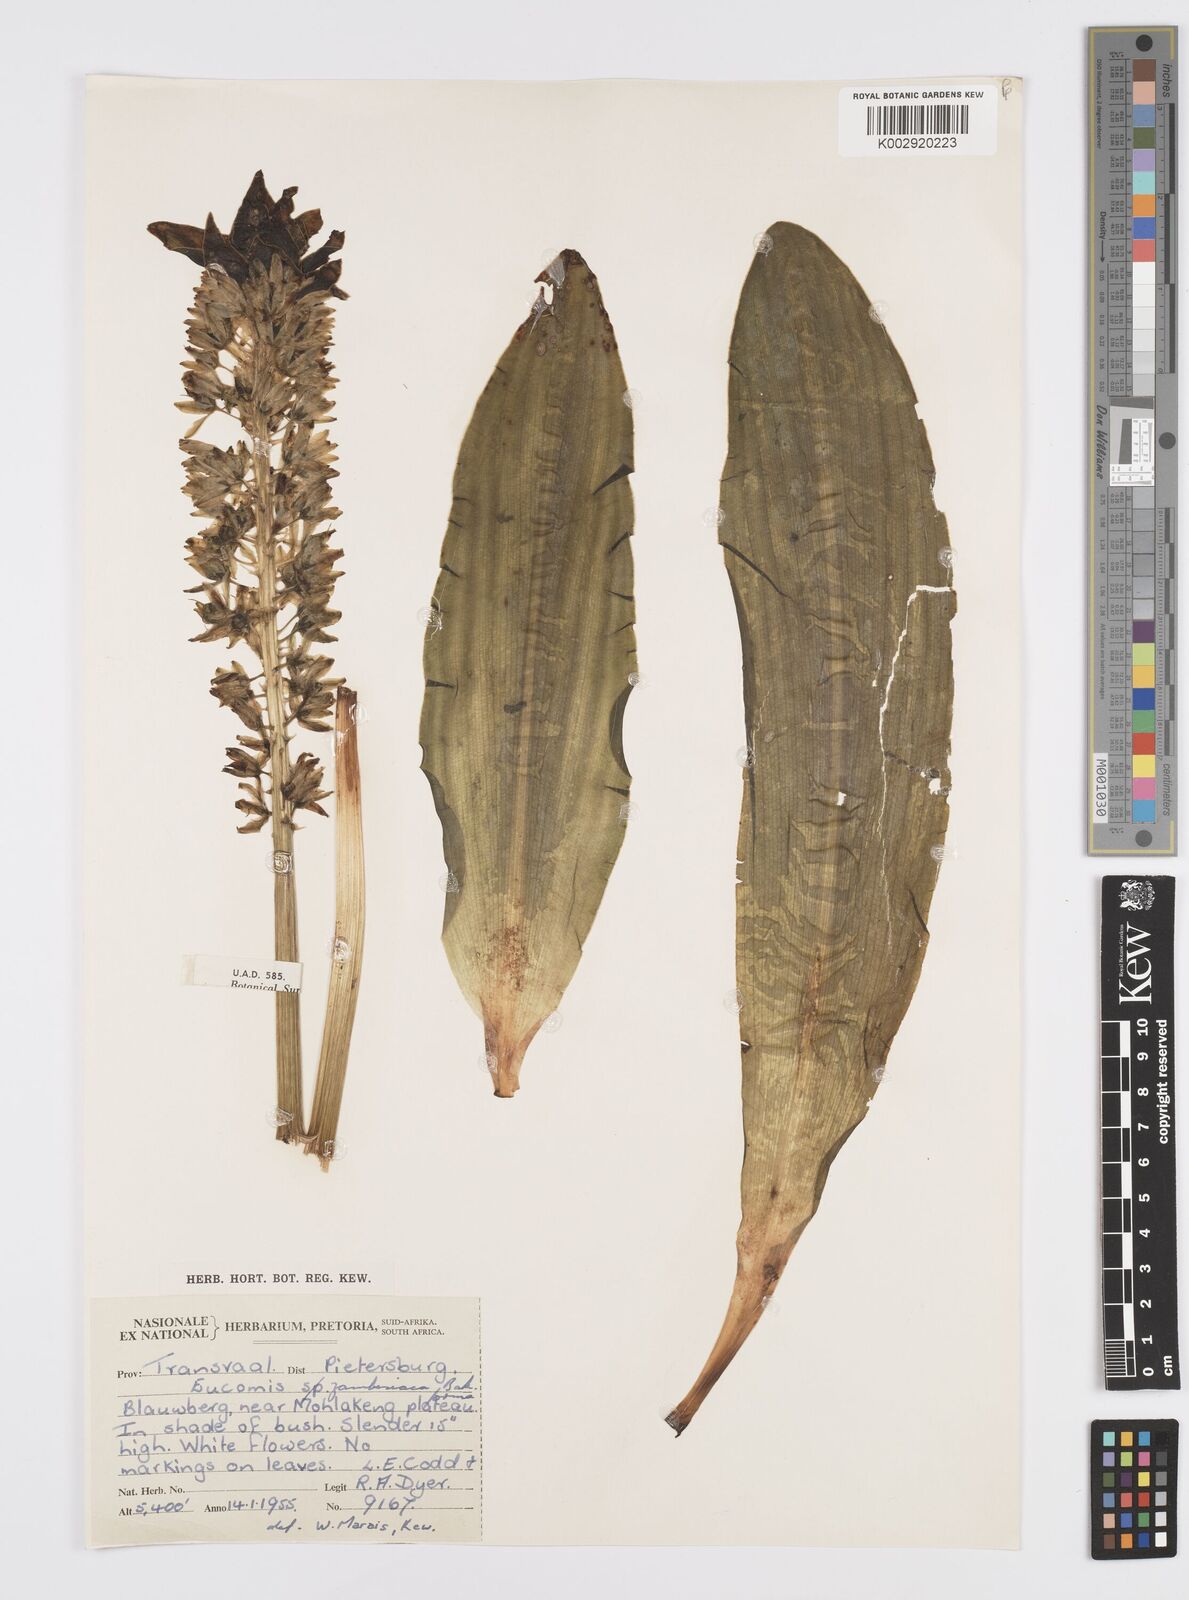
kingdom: Plantae
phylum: Tracheophyta
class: Liliopsida
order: Asparagales
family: Asparagaceae
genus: Eucomis
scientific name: Eucomis zambesiaca
